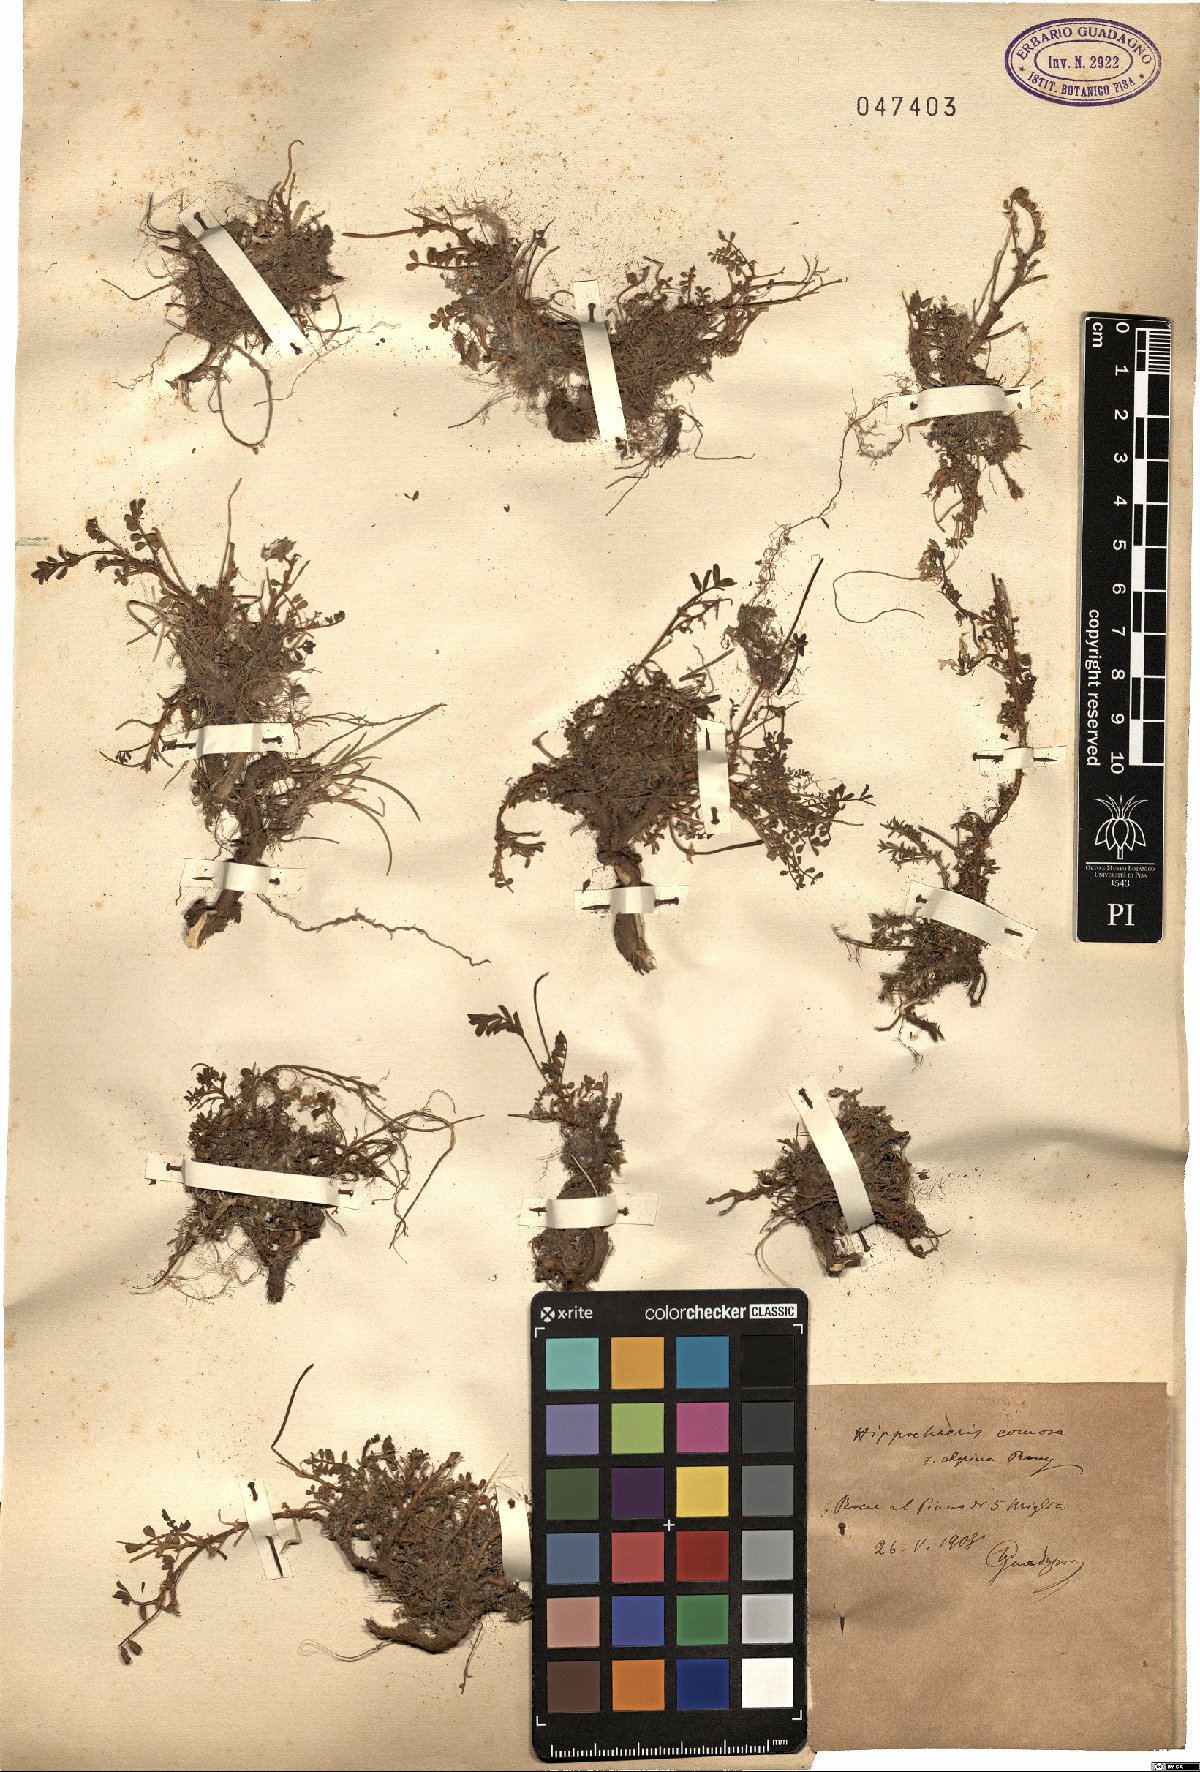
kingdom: Plantae
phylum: Tracheophyta
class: Magnoliopsida
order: Fabales
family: Fabaceae
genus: Hippocrepis
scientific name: Hippocrepis comosa
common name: Horseshoe vetch
